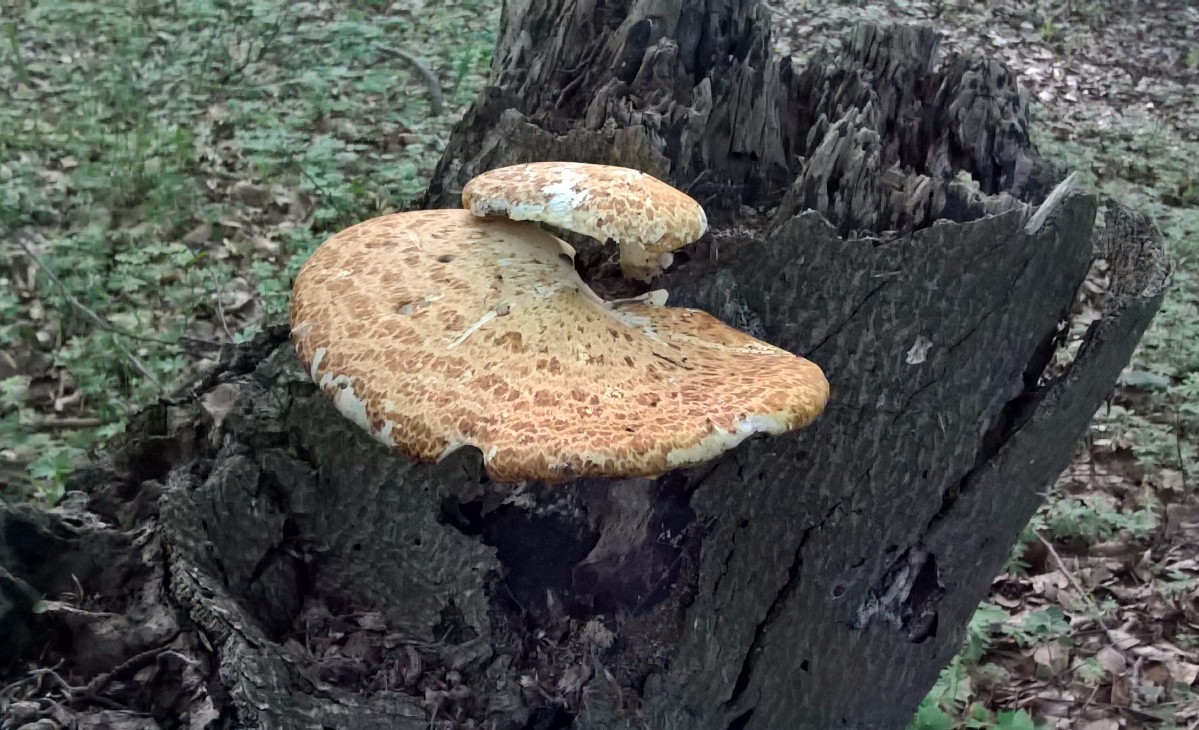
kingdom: Fungi
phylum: Basidiomycota
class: Agaricomycetes
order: Polyporales
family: Polyporaceae
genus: Cerioporus
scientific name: Cerioporus squamosus
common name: skællet stilkporesvamp
